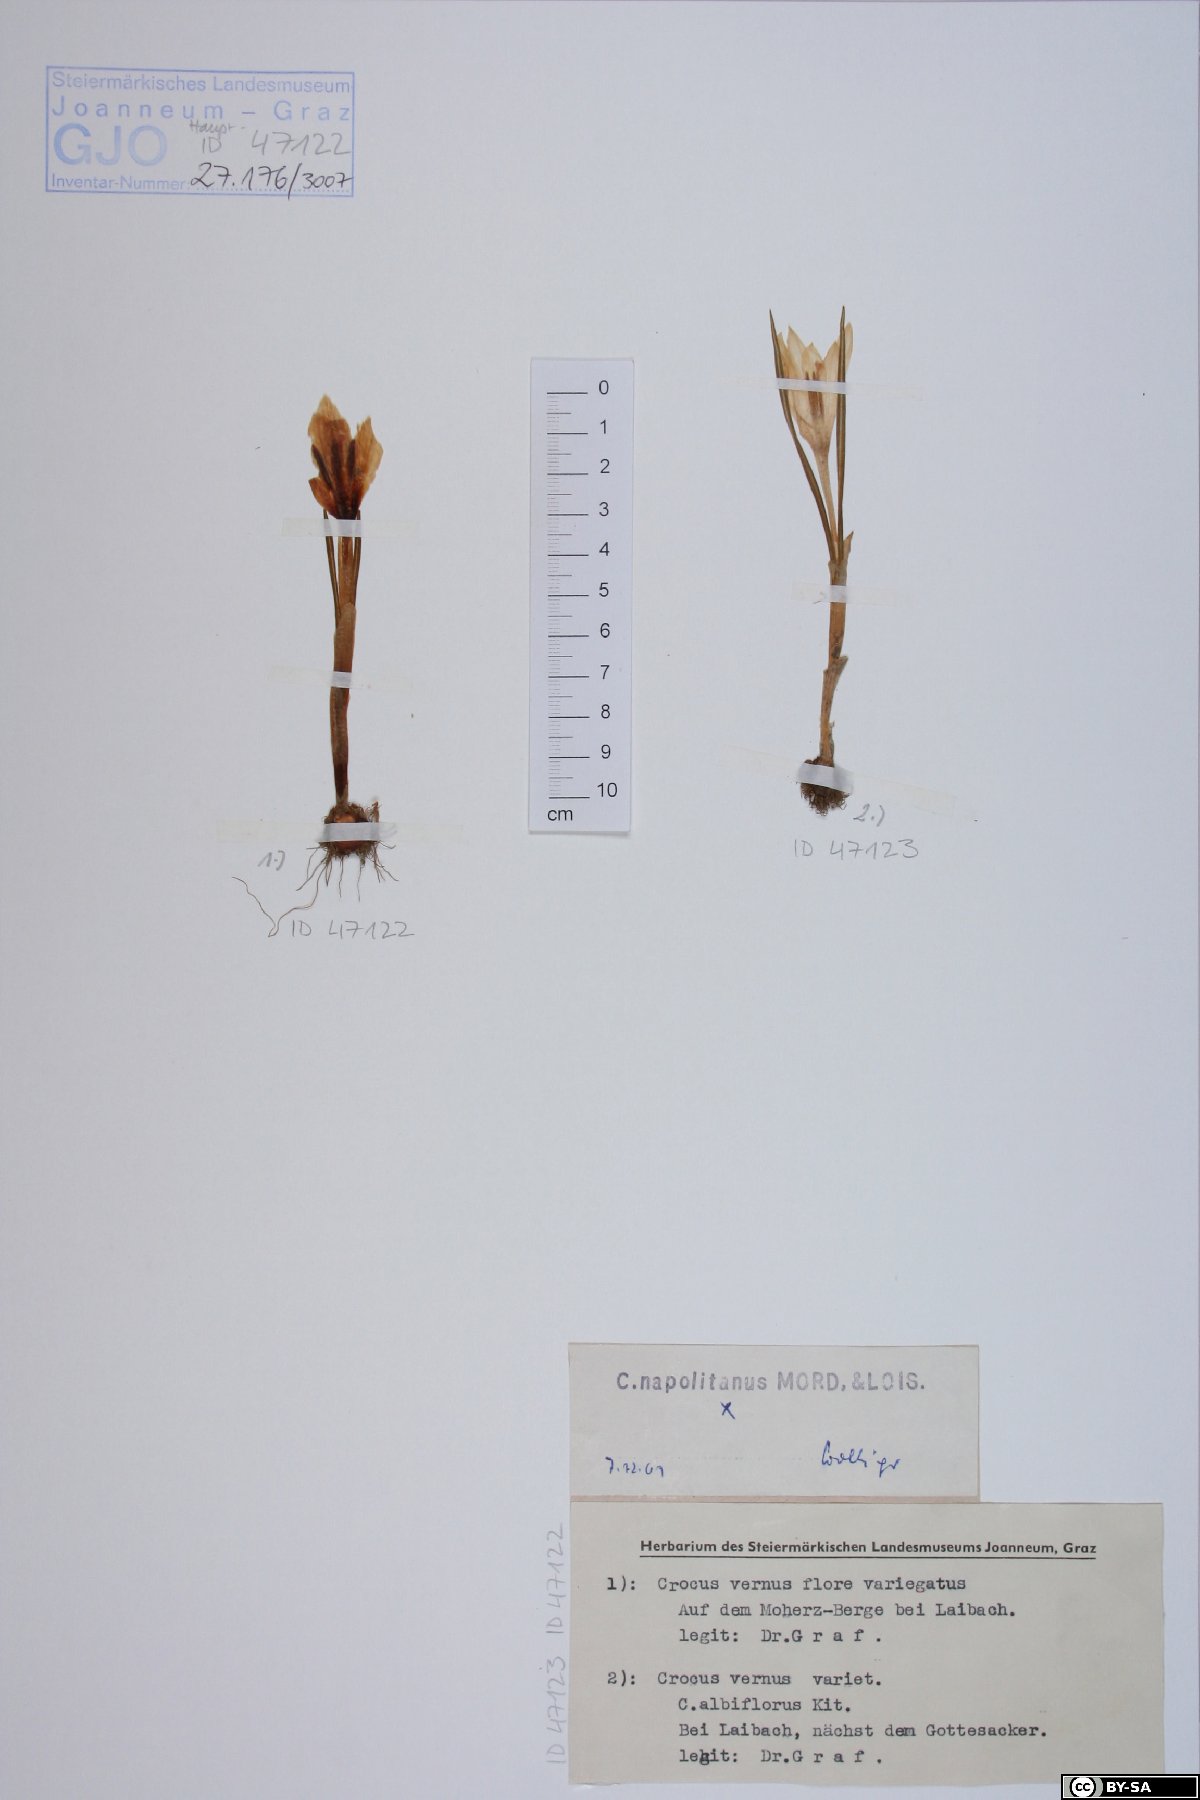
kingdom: Plantae
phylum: Tracheophyta
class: Liliopsida
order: Asparagales
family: Iridaceae
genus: Crocus
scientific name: Crocus vernus
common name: Spring crocus
